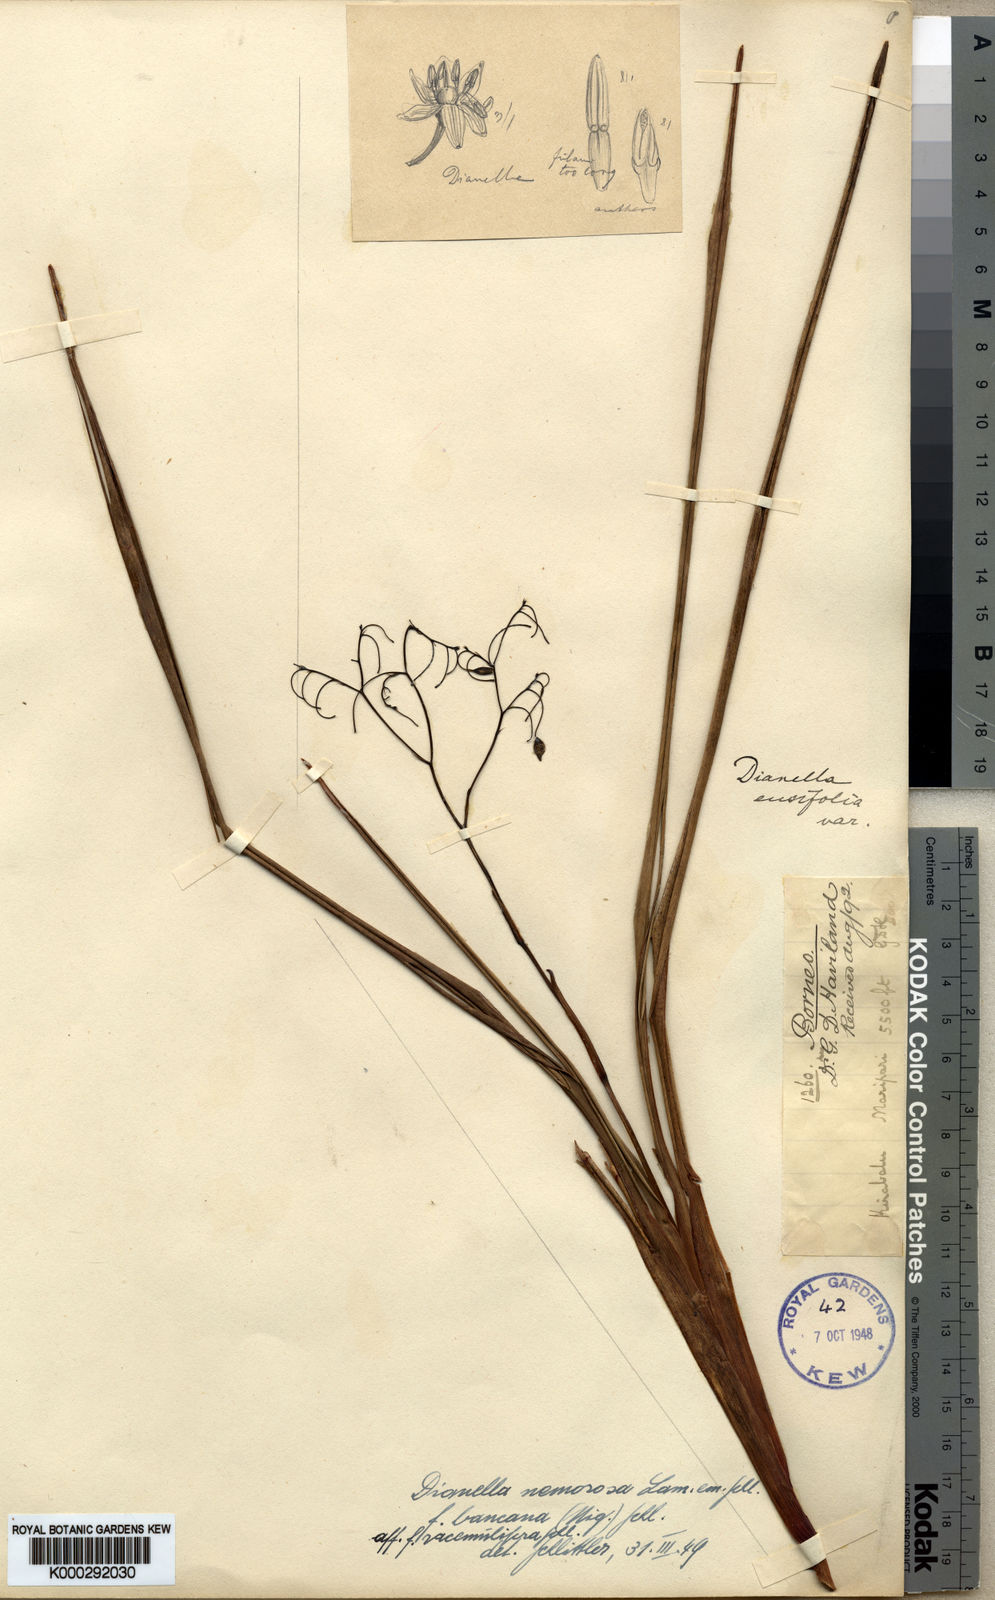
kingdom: Plantae
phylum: Tracheophyta
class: Liliopsida
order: Asparagales
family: Asphodelaceae
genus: Dianella
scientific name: Dianella
